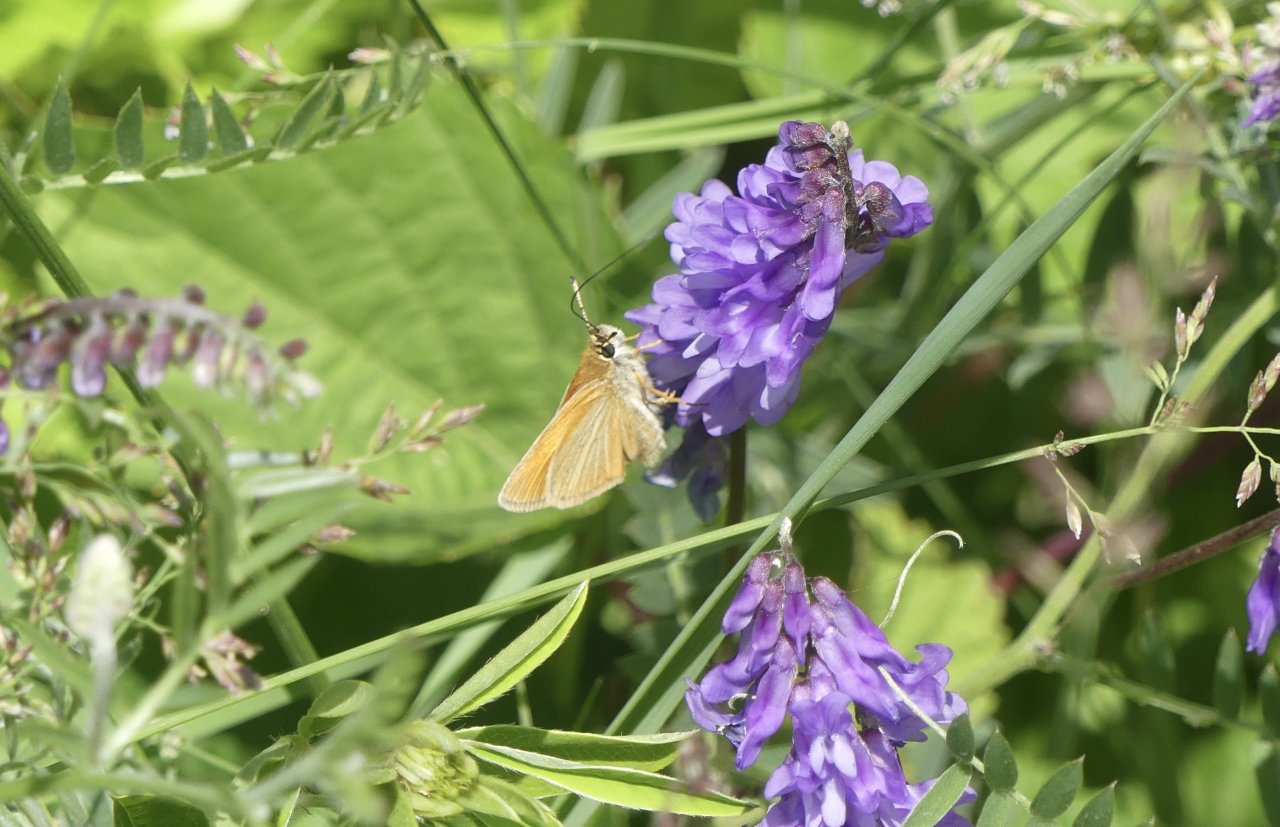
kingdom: Animalia
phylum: Arthropoda
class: Insecta
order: Lepidoptera
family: Hesperiidae
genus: Ancyloxypha
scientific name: Ancyloxypha numitor
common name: Least Skipper
